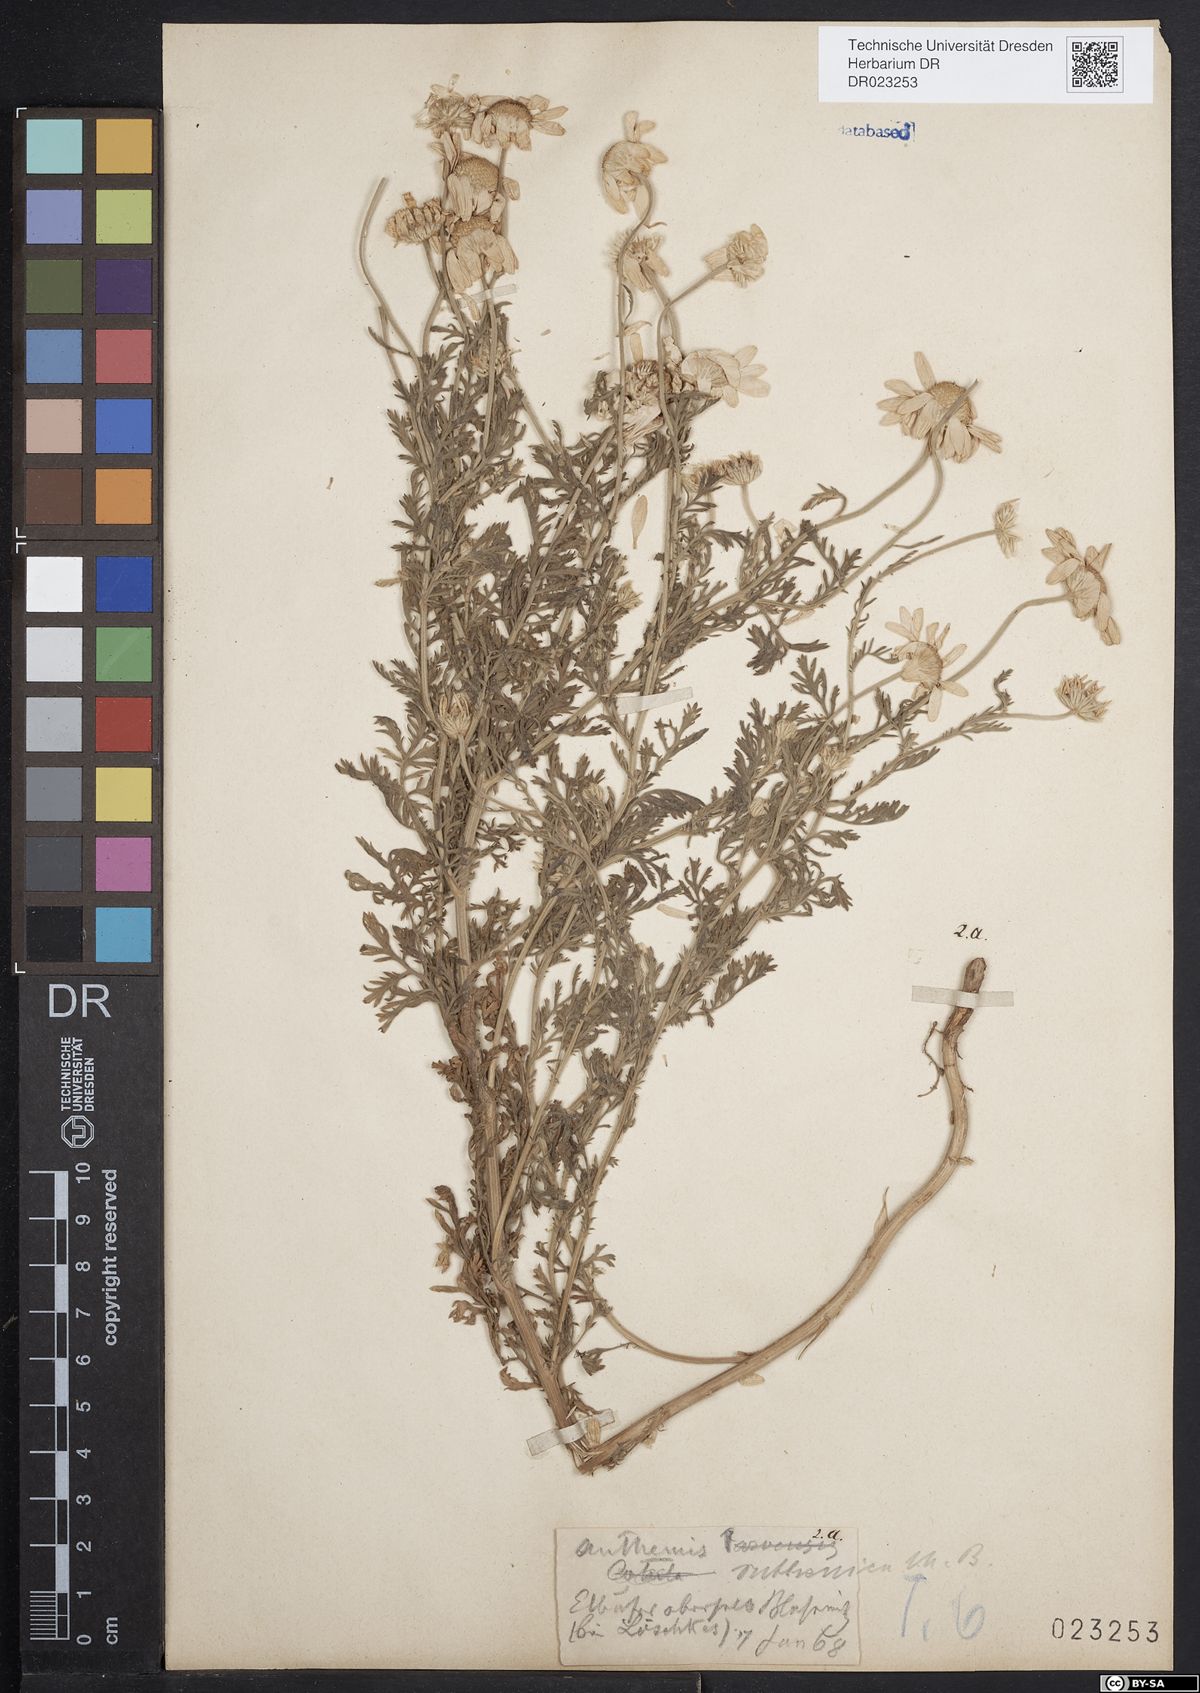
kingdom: Plantae
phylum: Tracheophyta
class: Magnoliopsida
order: Asterales
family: Asteraceae
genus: Anthemis
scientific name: Anthemis arvensis
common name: Corn chamomile
